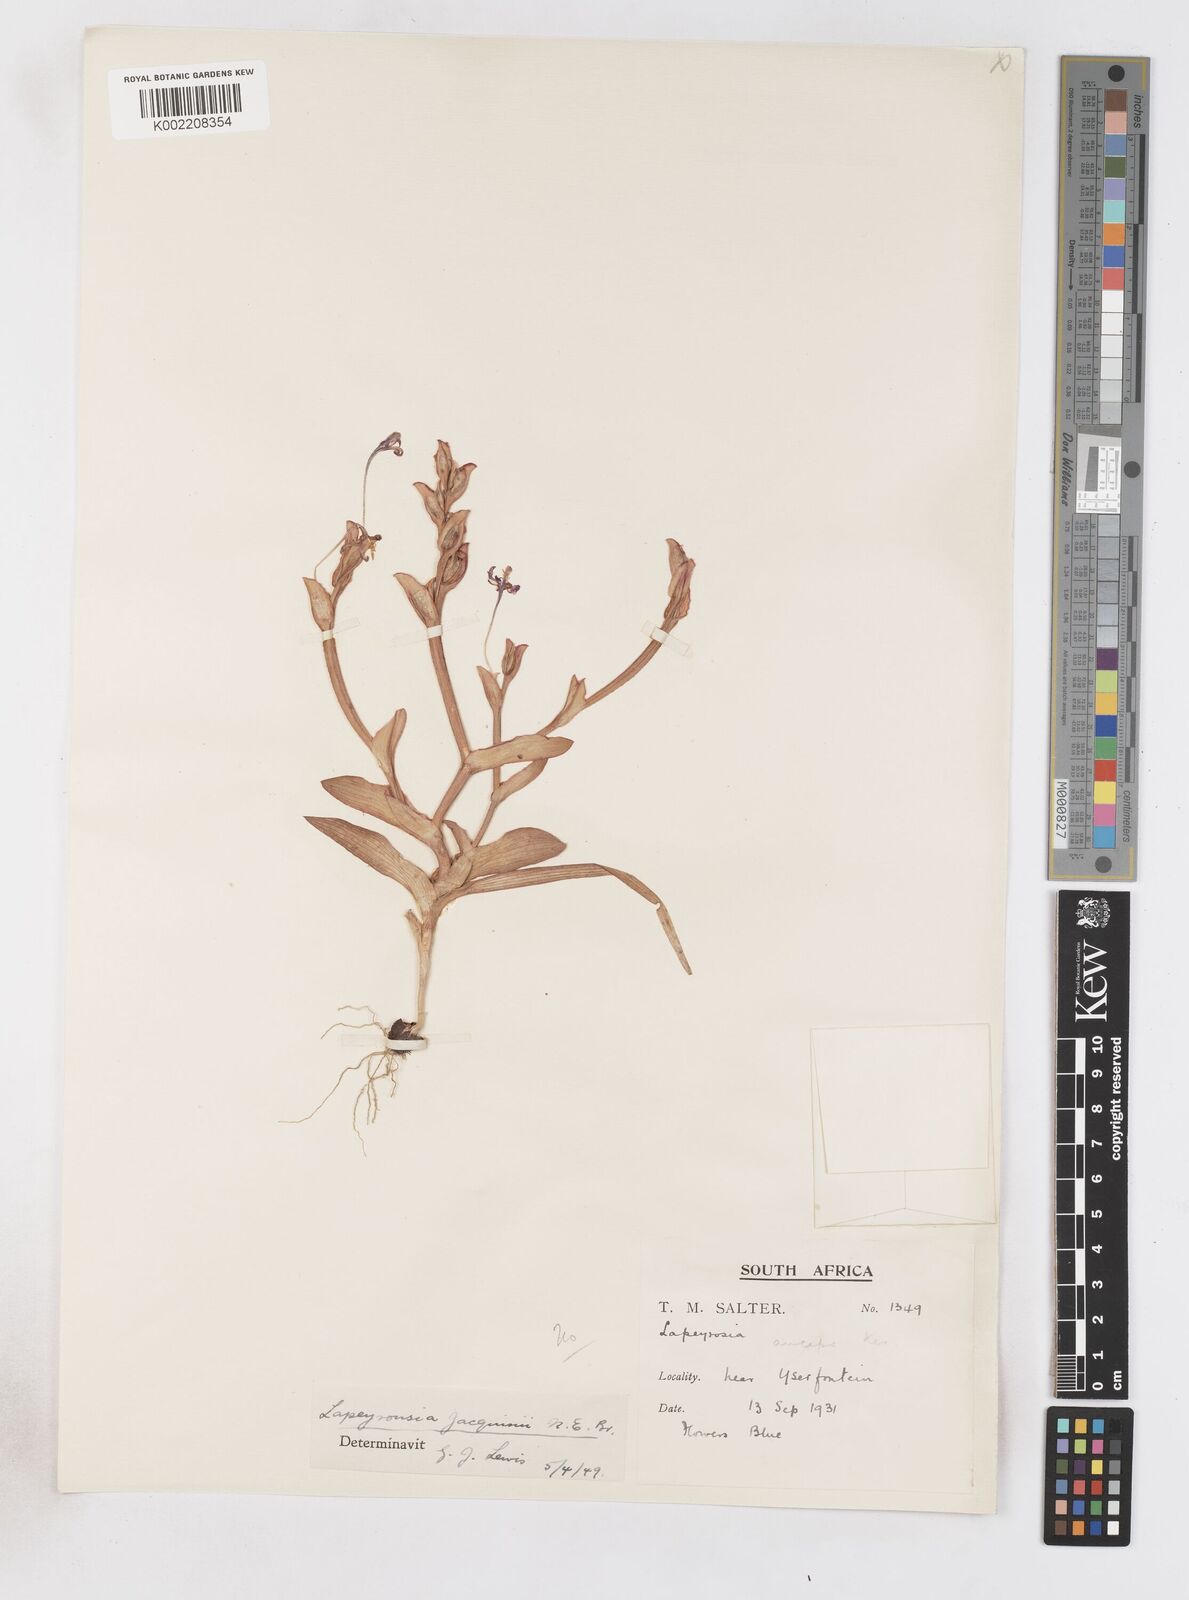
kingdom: Plantae
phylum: Tracheophyta
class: Liliopsida
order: Asparagales
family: Iridaceae
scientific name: Iridaceae
